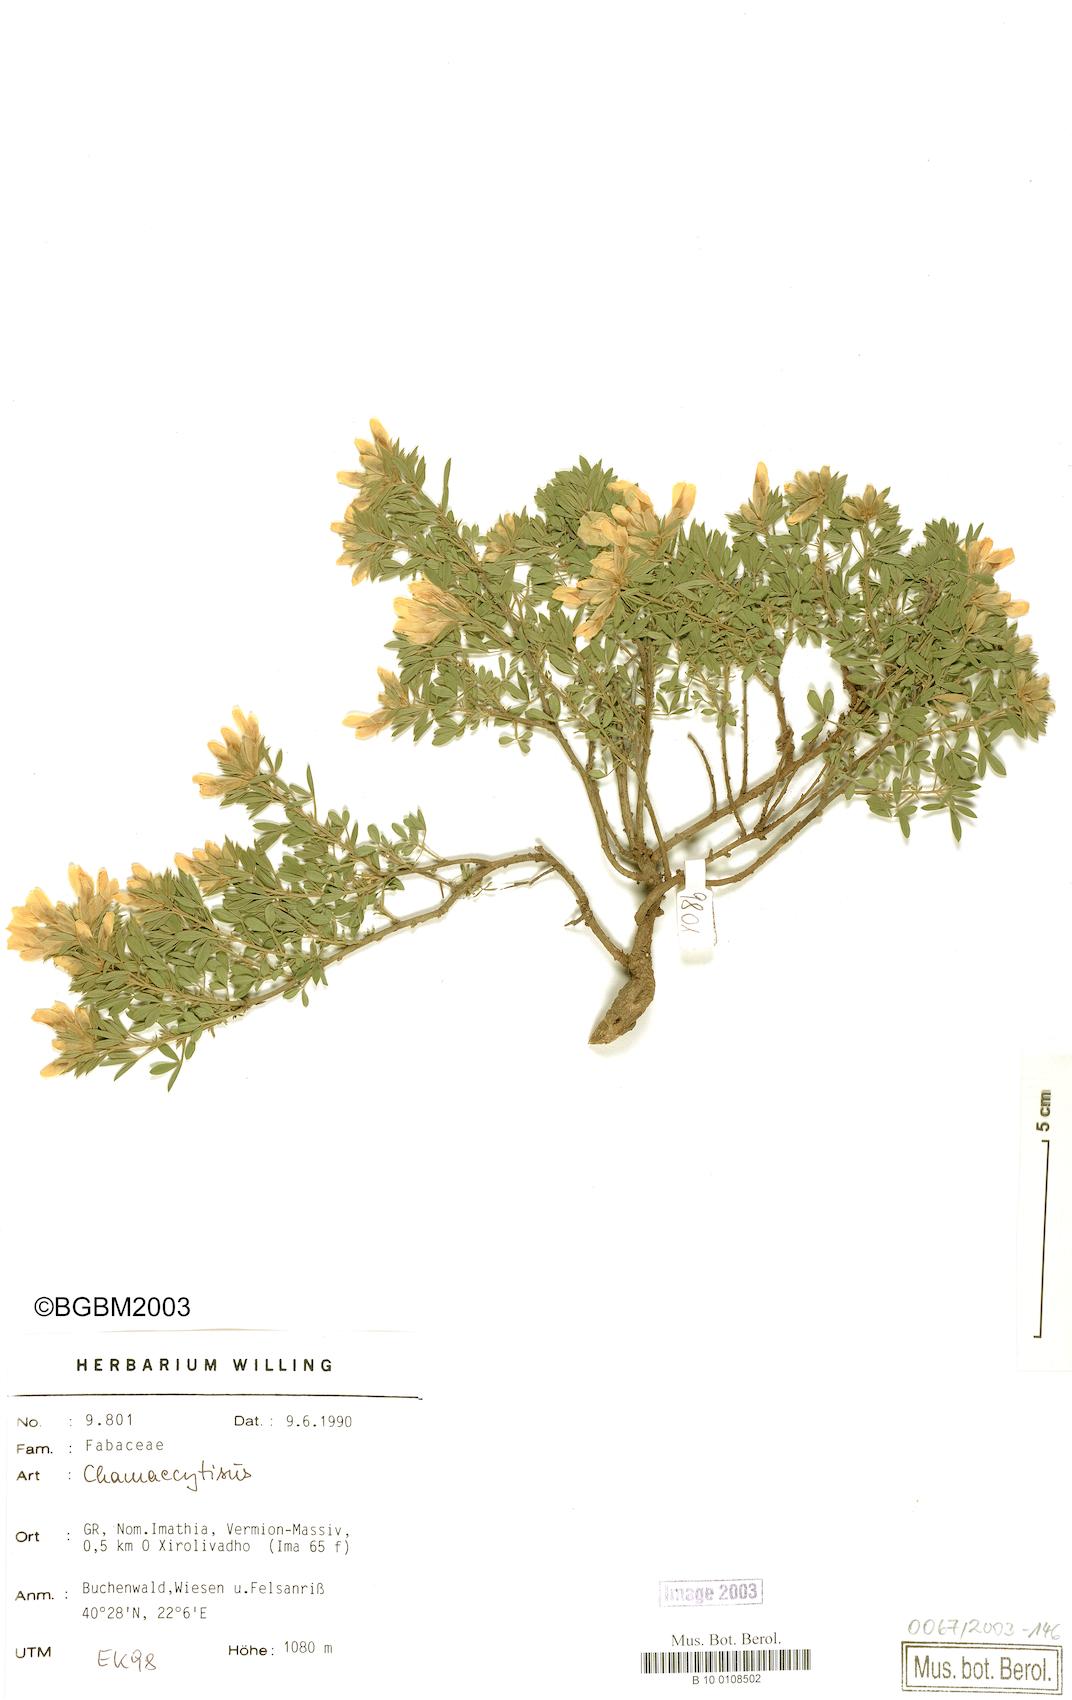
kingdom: Plantae
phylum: Tracheophyta
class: Magnoliopsida
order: Fabales
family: Fabaceae
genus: Chamaecytisus
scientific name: Chamaecytisus
